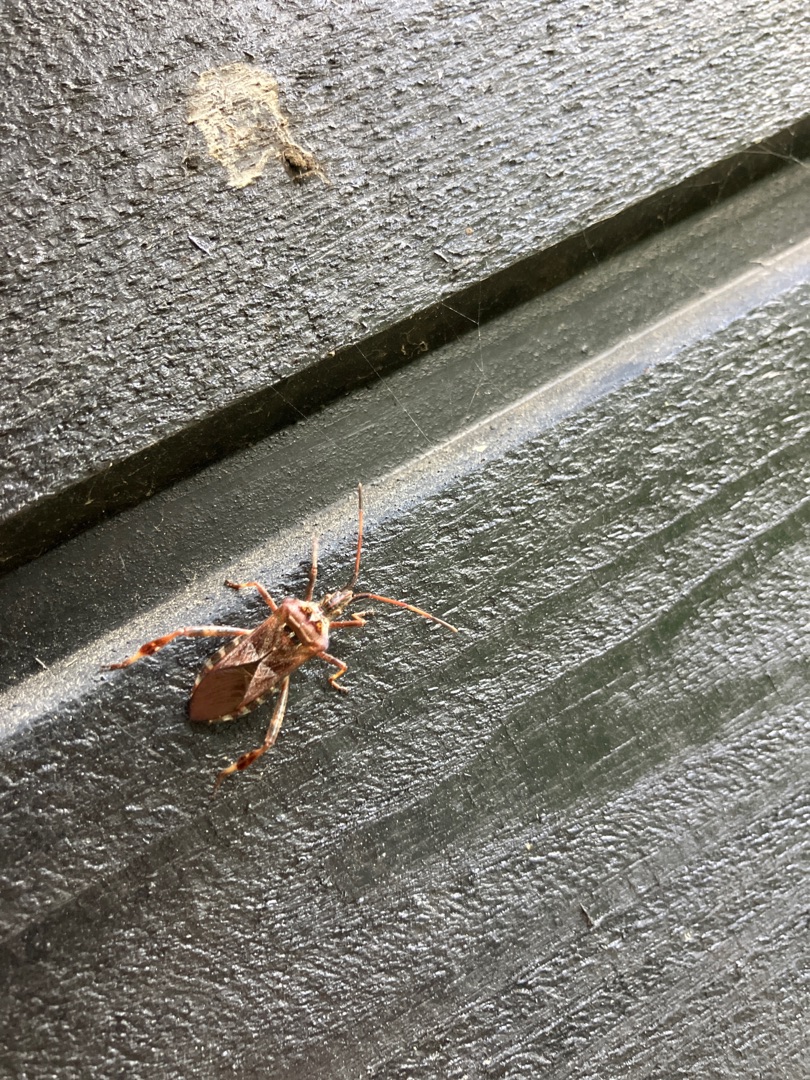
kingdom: Animalia
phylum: Arthropoda
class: Insecta
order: Hemiptera
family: Coreidae
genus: Leptoglossus
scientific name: Leptoglossus occidentalis
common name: Amerikansk fyrretæge
